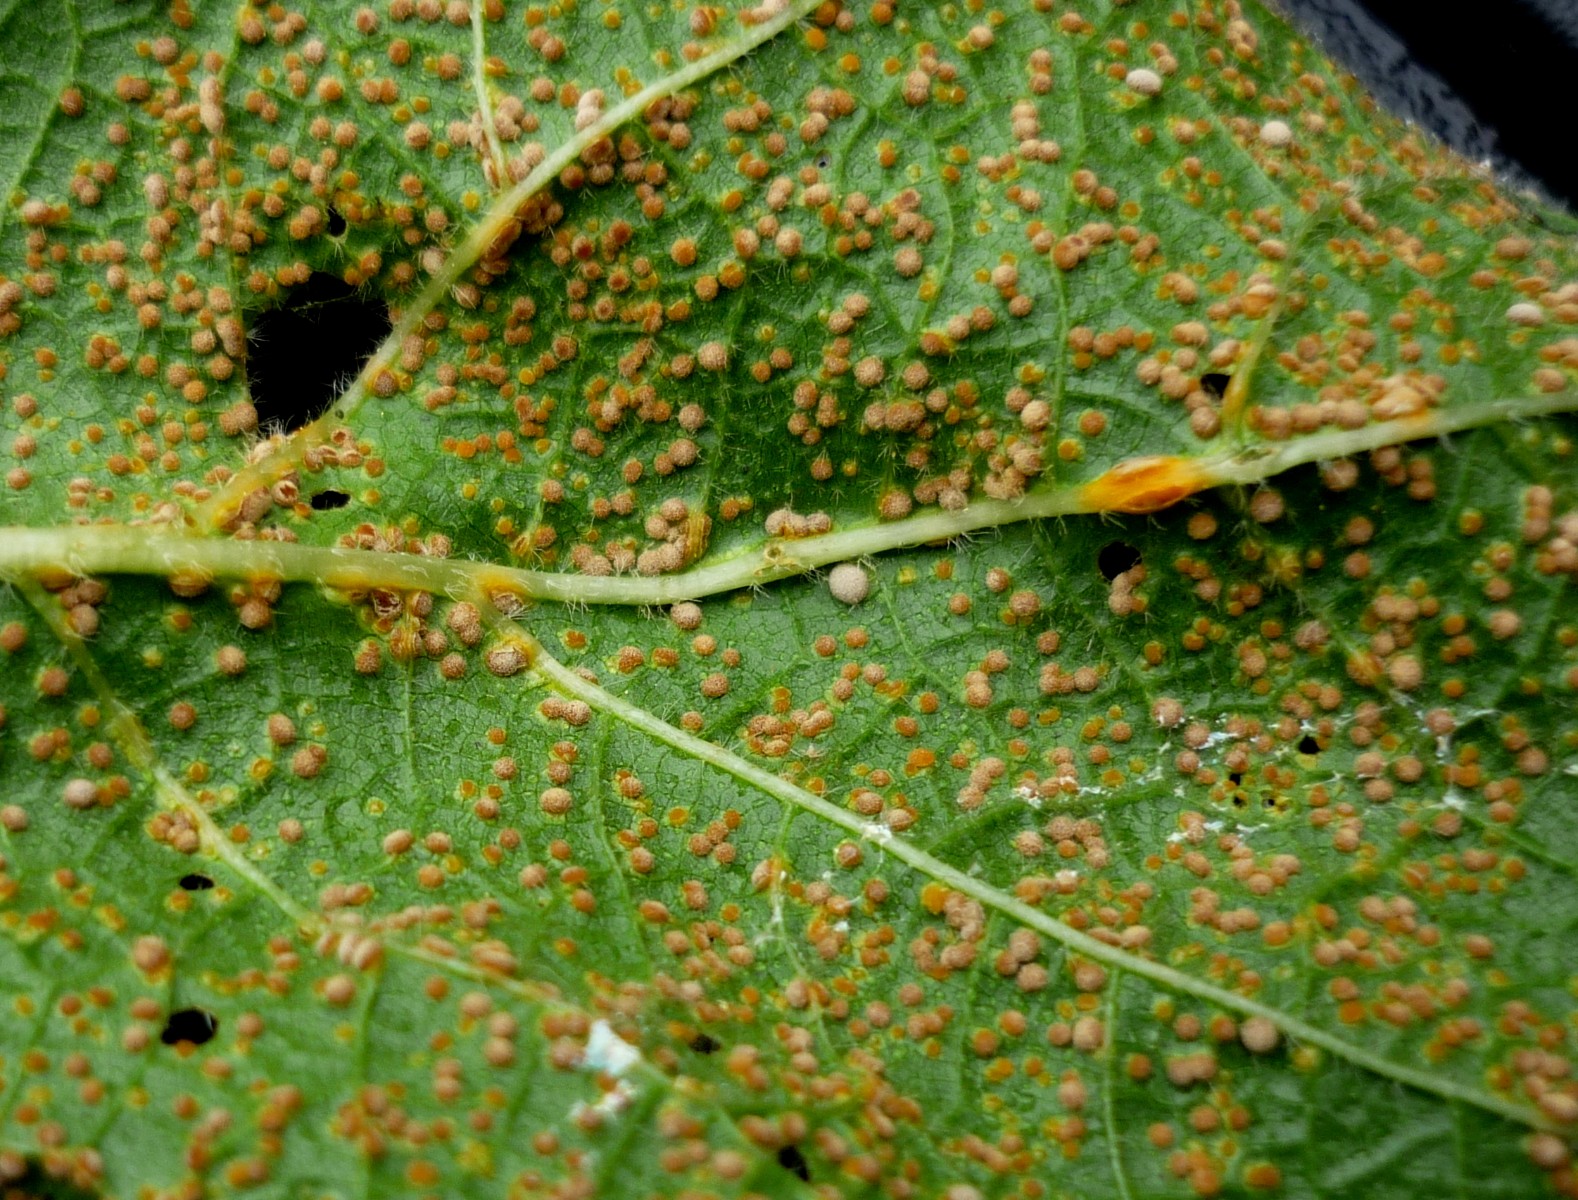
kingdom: Fungi
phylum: Basidiomycota
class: Pucciniomycetes
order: Pucciniales
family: Pucciniaceae
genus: Puccinia
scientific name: Puccinia malvacearum
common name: stokrose-tvecellerust
